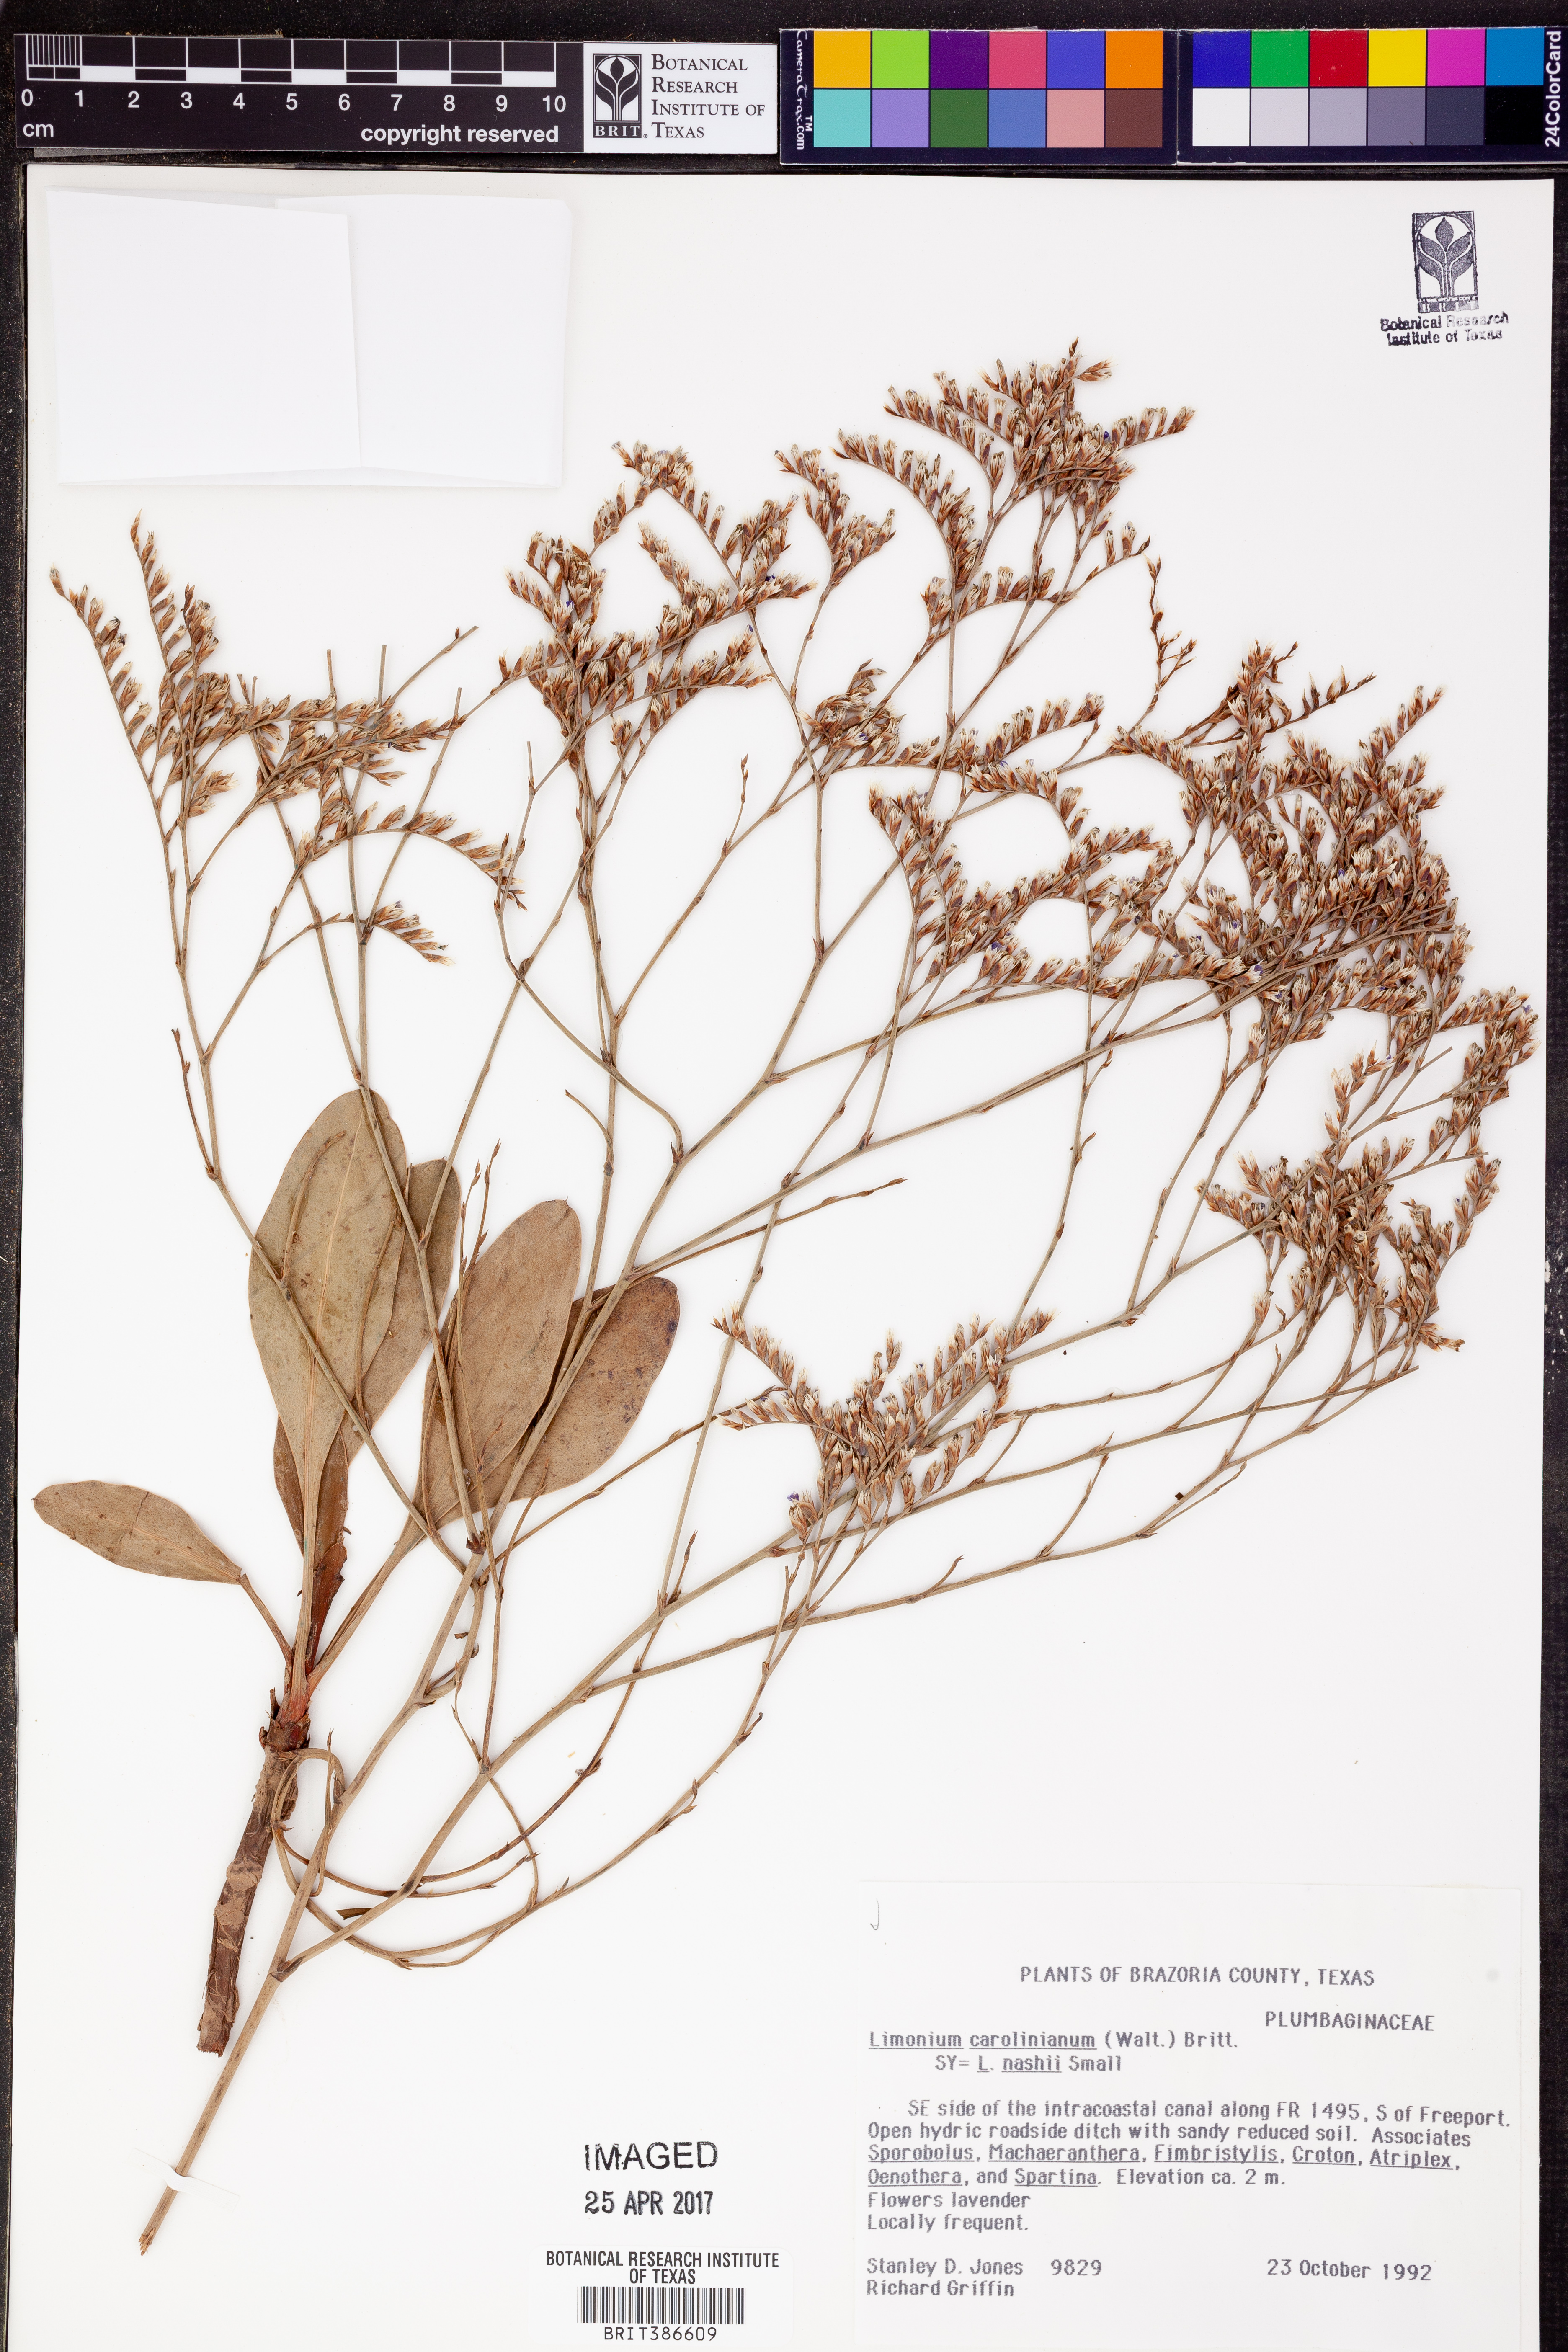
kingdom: Plantae
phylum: Tracheophyta
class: Magnoliopsida
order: Caryophyllales
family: Plumbaginaceae
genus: Limonium
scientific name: Limonium carolinianum
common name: Carolina sea lavender
